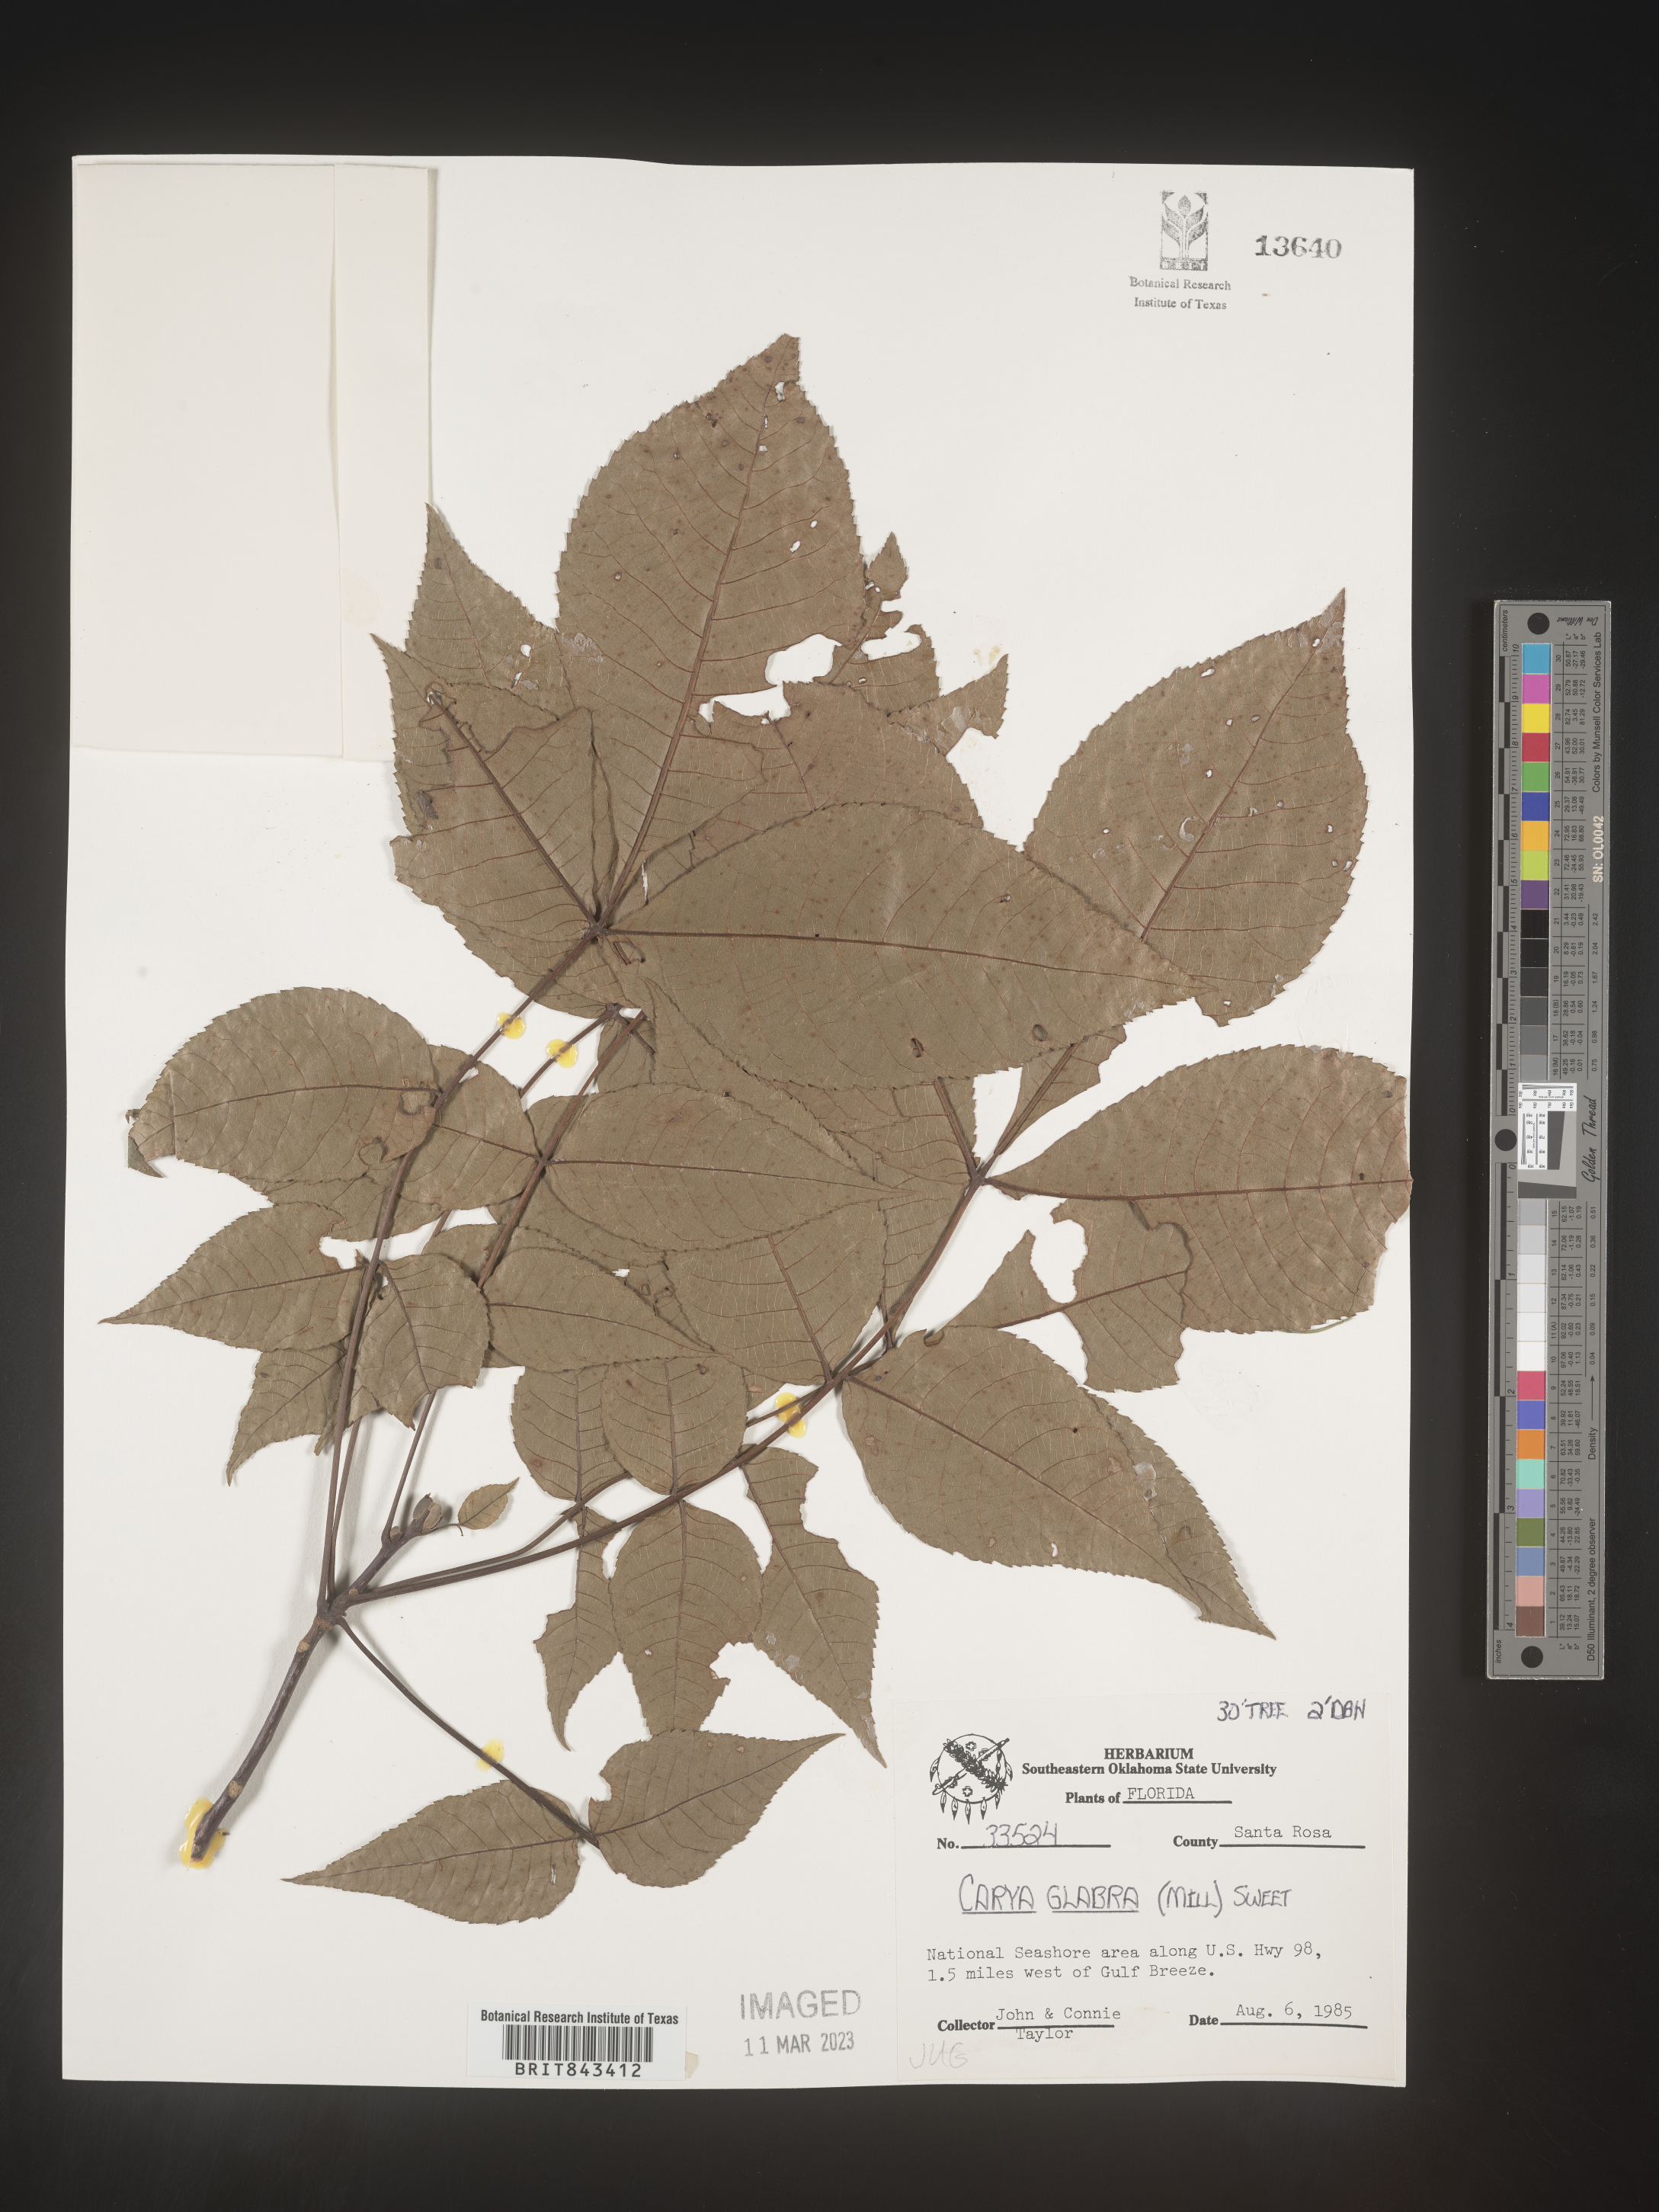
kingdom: Plantae
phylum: Tracheophyta
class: Magnoliopsida
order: Fagales
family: Juglandaceae
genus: Carya
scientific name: Carya glabra
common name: Pignut hickory
